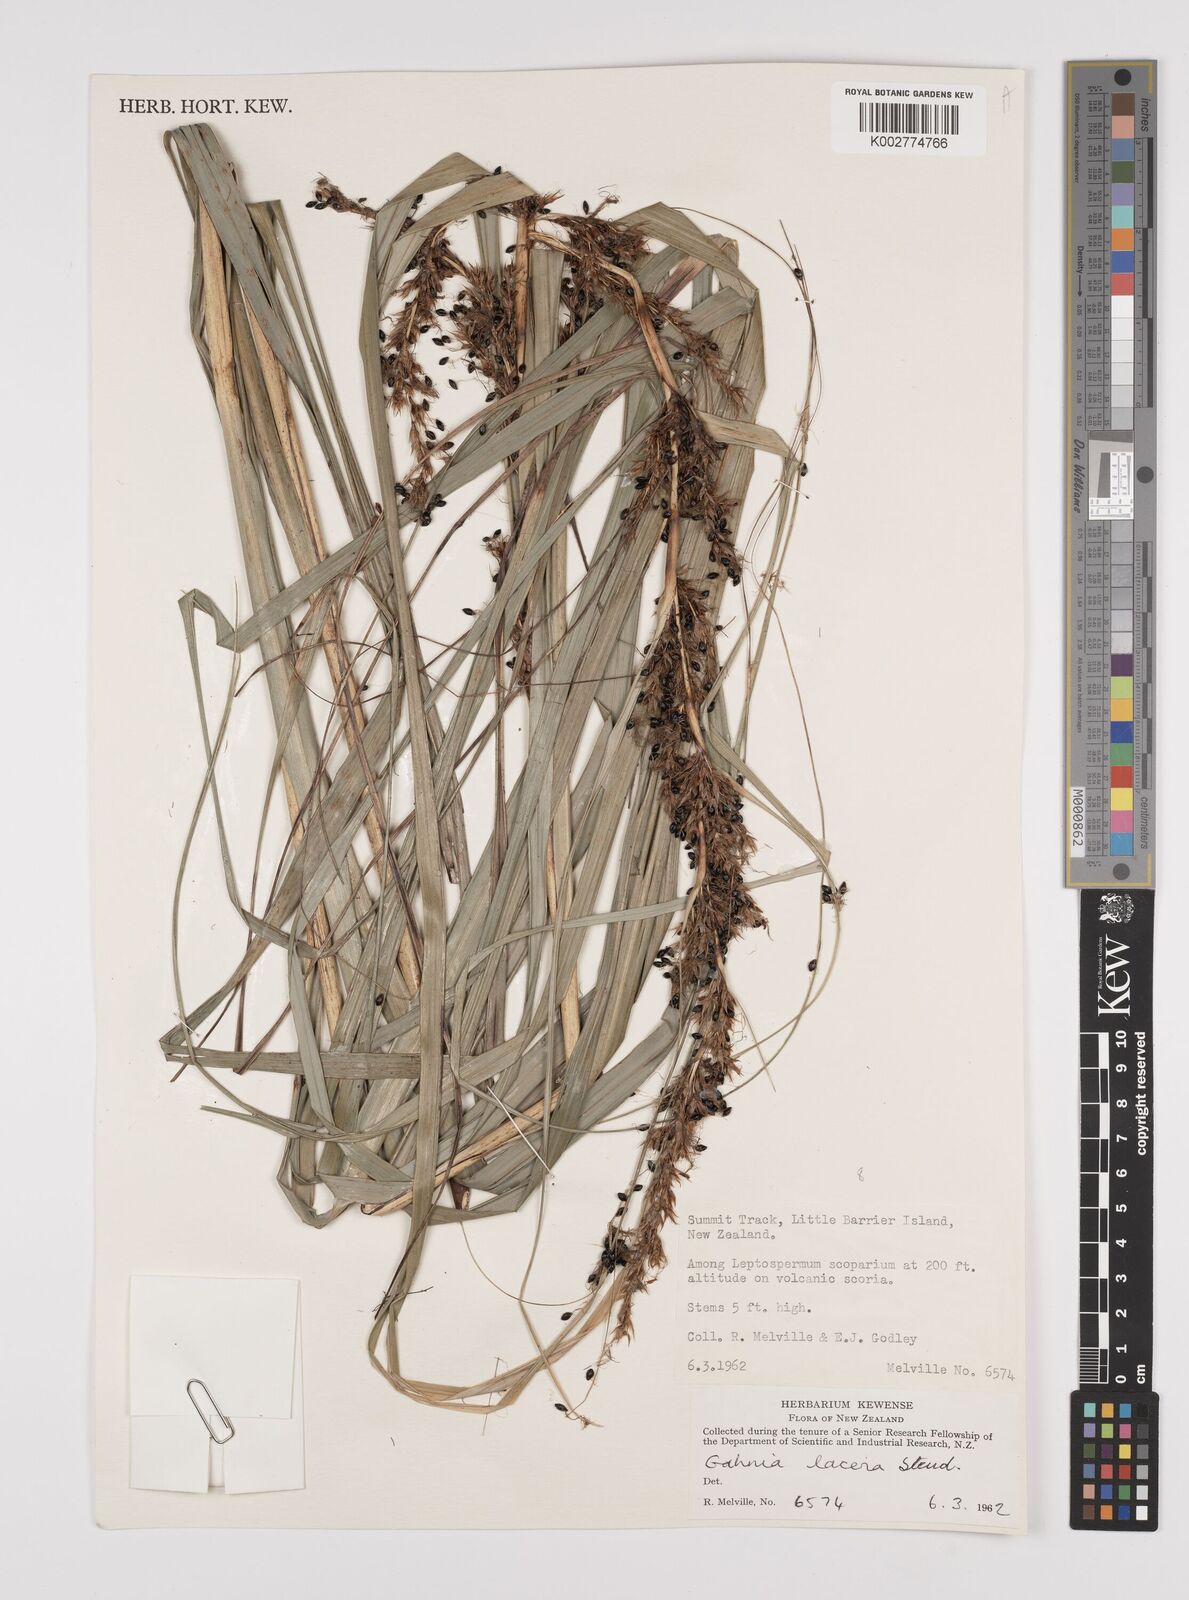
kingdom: Plantae
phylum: Tracheophyta
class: Liliopsida
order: Poales
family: Cyperaceae
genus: Gahnia
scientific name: Gahnia lacera
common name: Sawsedge
